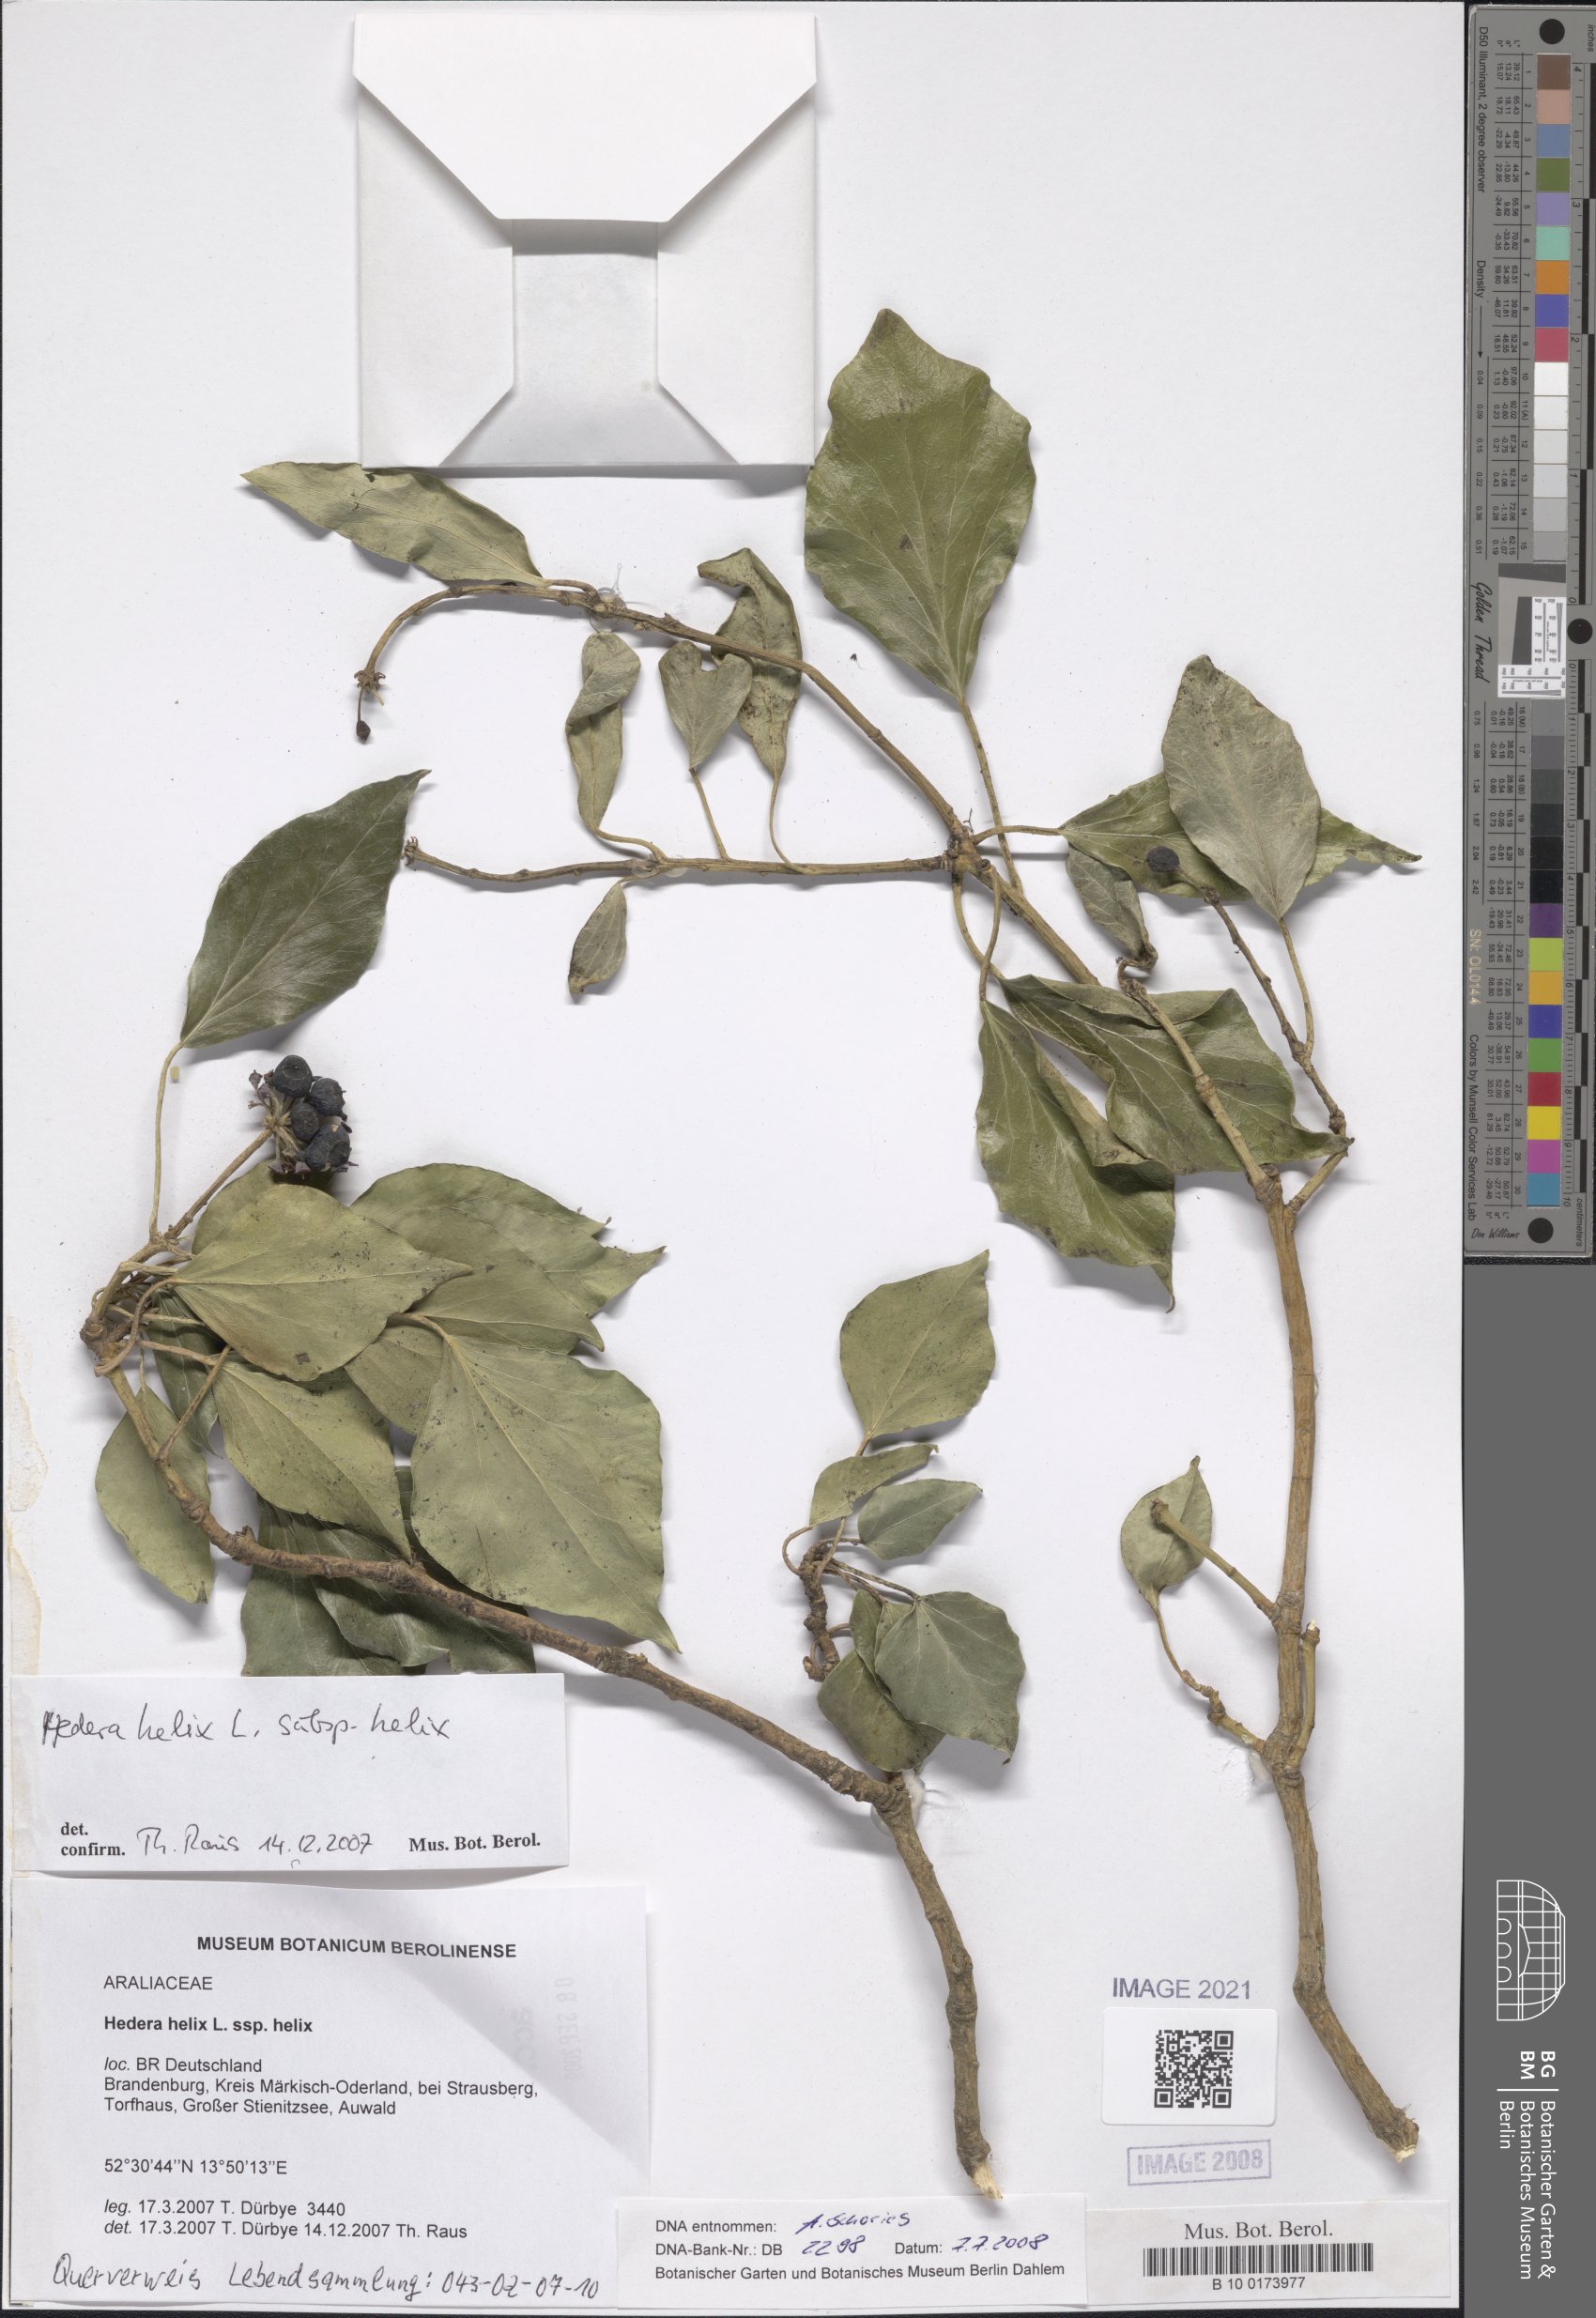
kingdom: Plantae
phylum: Tracheophyta
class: Magnoliopsida
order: Apiales
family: Araliaceae
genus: Hedera
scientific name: Hedera helix
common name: Ivy
